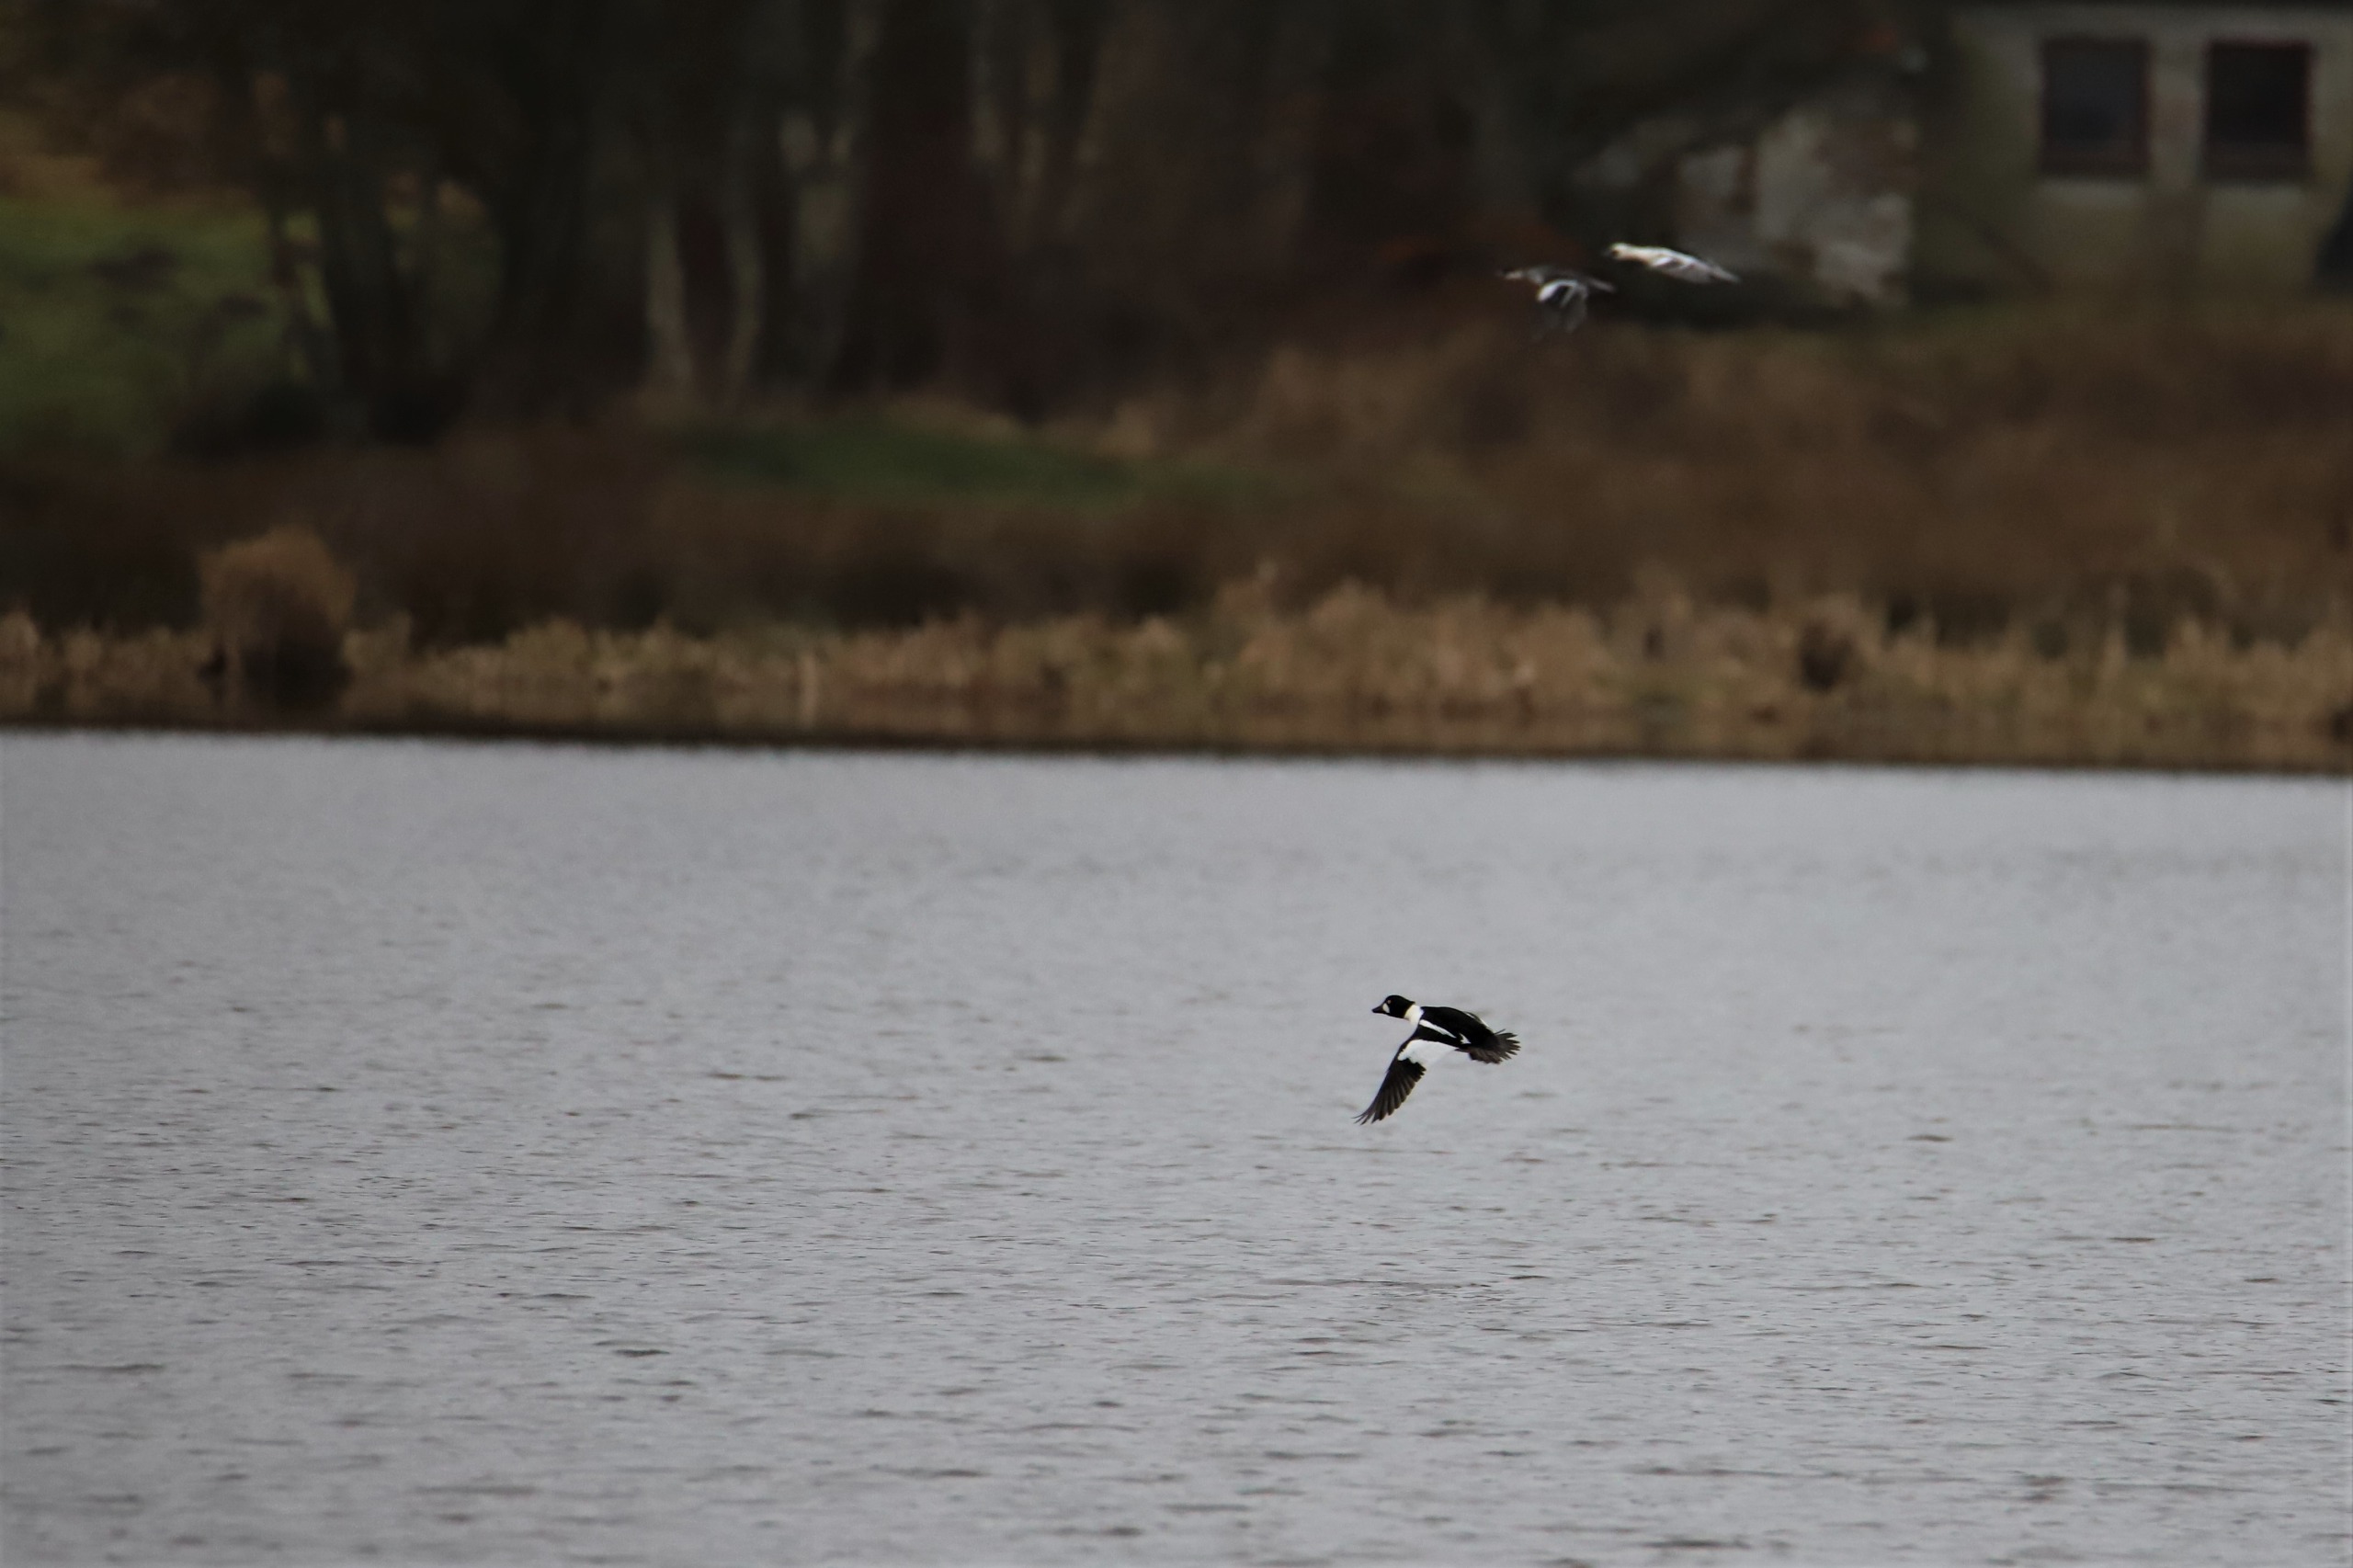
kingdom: Animalia
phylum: Chordata
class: Aves
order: Anseriformes
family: Anatidae
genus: Bucephala
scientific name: Bucephala clangula
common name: Hvinand
